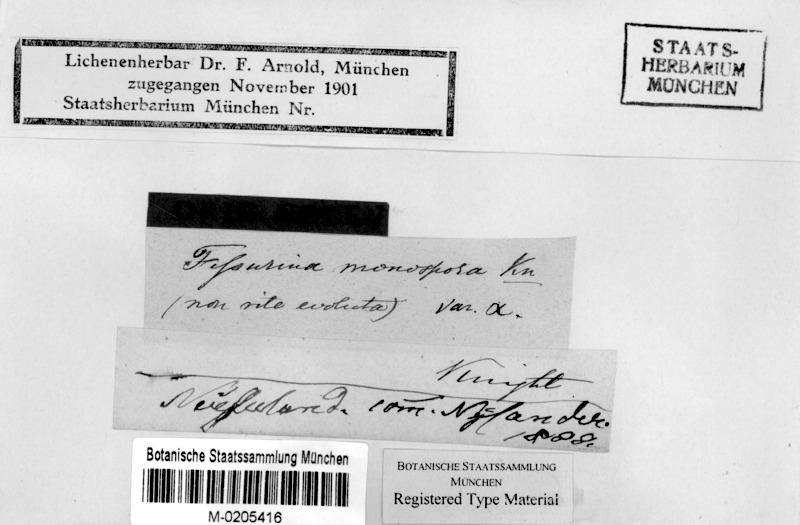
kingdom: Fungi
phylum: Ascomycota
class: Lecanoromycetes
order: Ostropales
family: Graphidaceae
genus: Fissurina
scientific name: Fissurina
